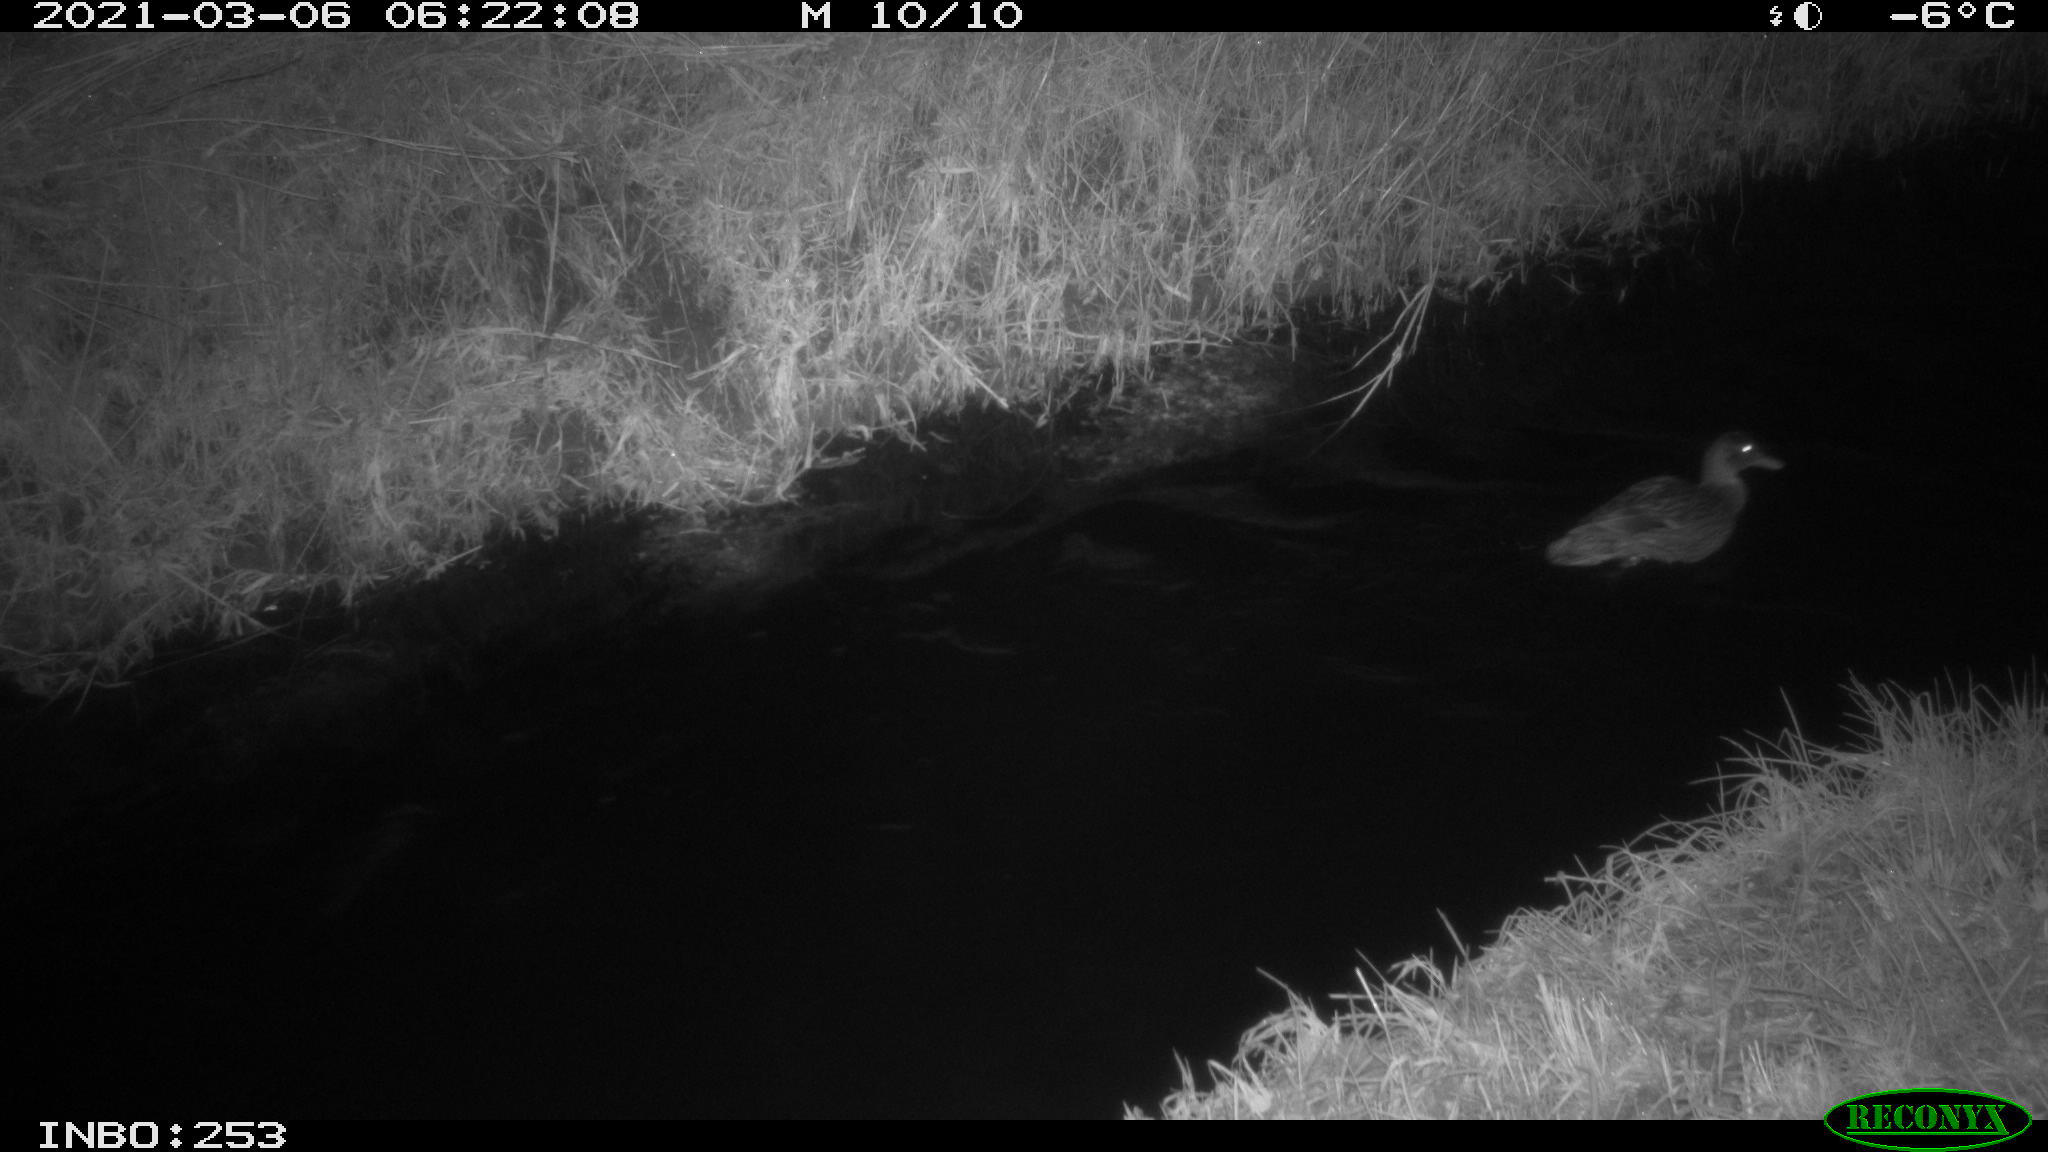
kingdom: Animalia
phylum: Chordata
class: Aves
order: Anseriformes
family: Anatidae
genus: Anas
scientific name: Anas platyrhynchos
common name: Mallard
